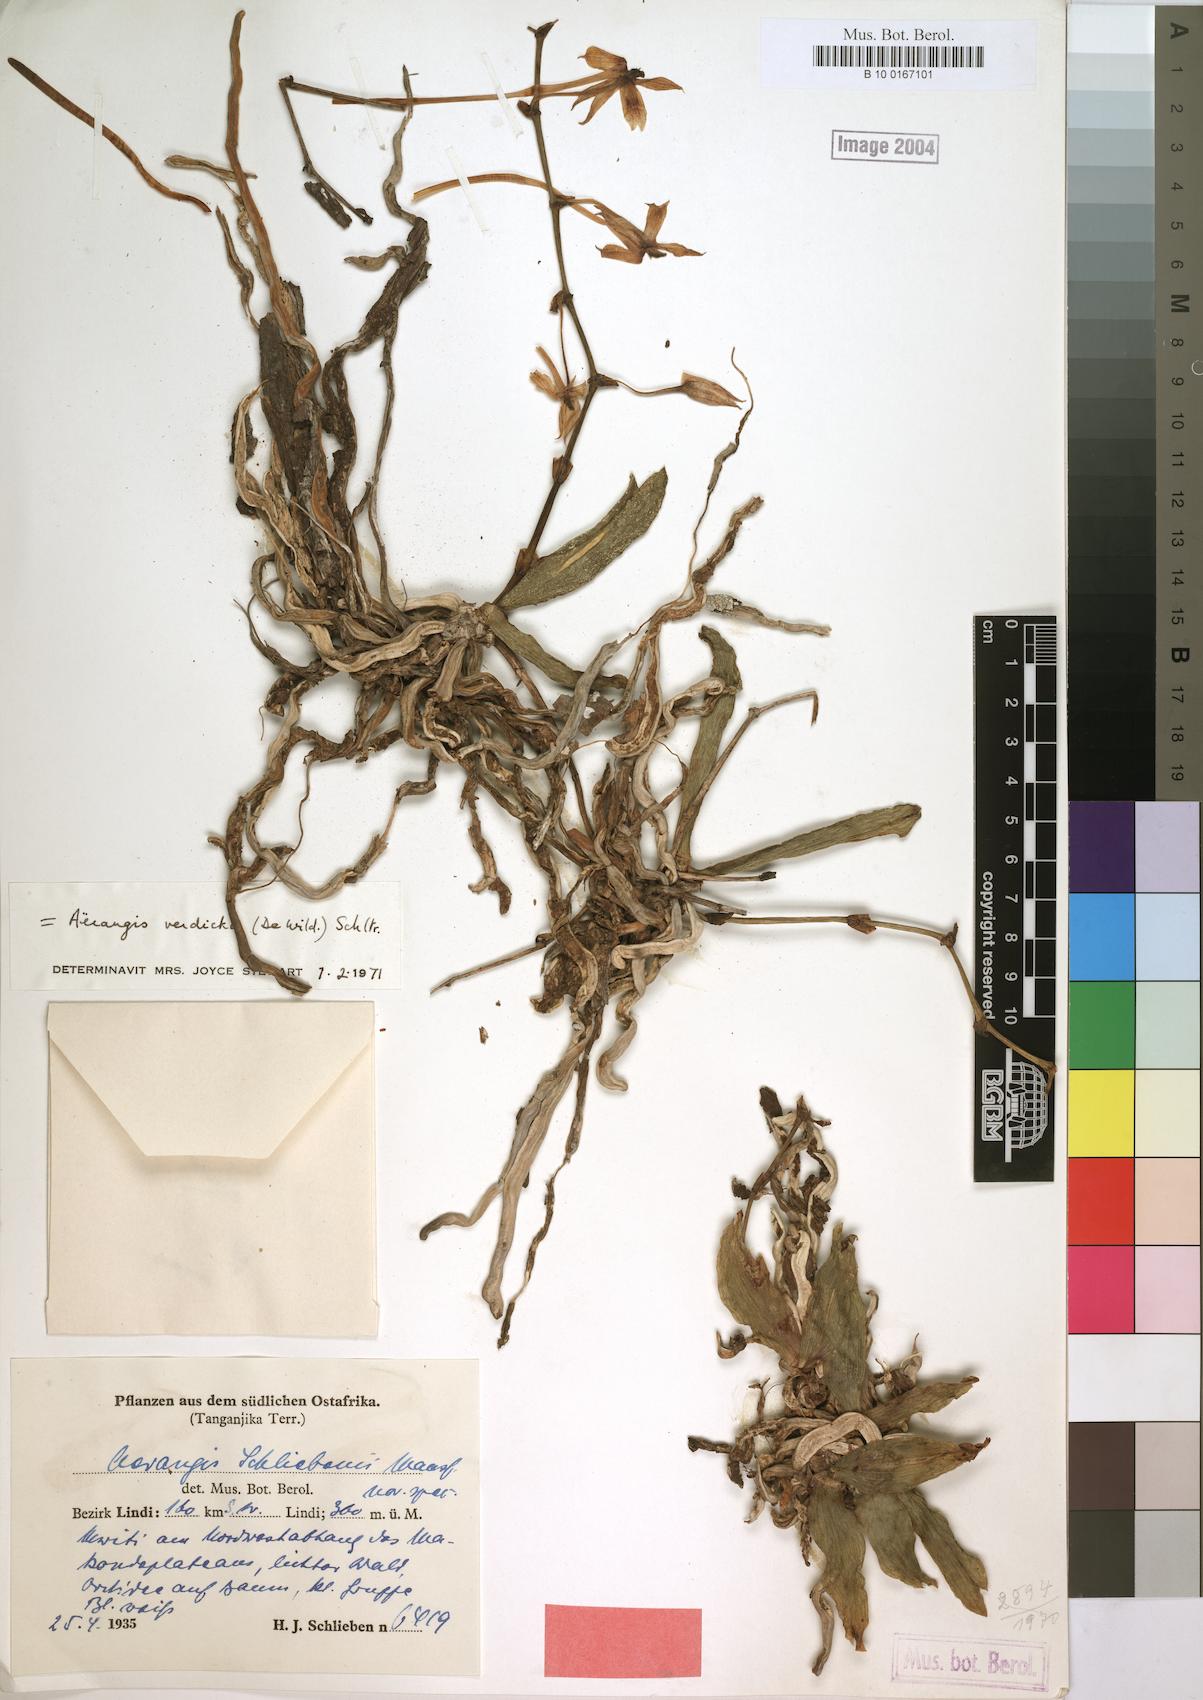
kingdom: Plantae
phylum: Tracheophyta
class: Liliopsida
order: Asparagales
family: Orchidaceae
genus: Aerangis
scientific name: Aerangis verdickii
